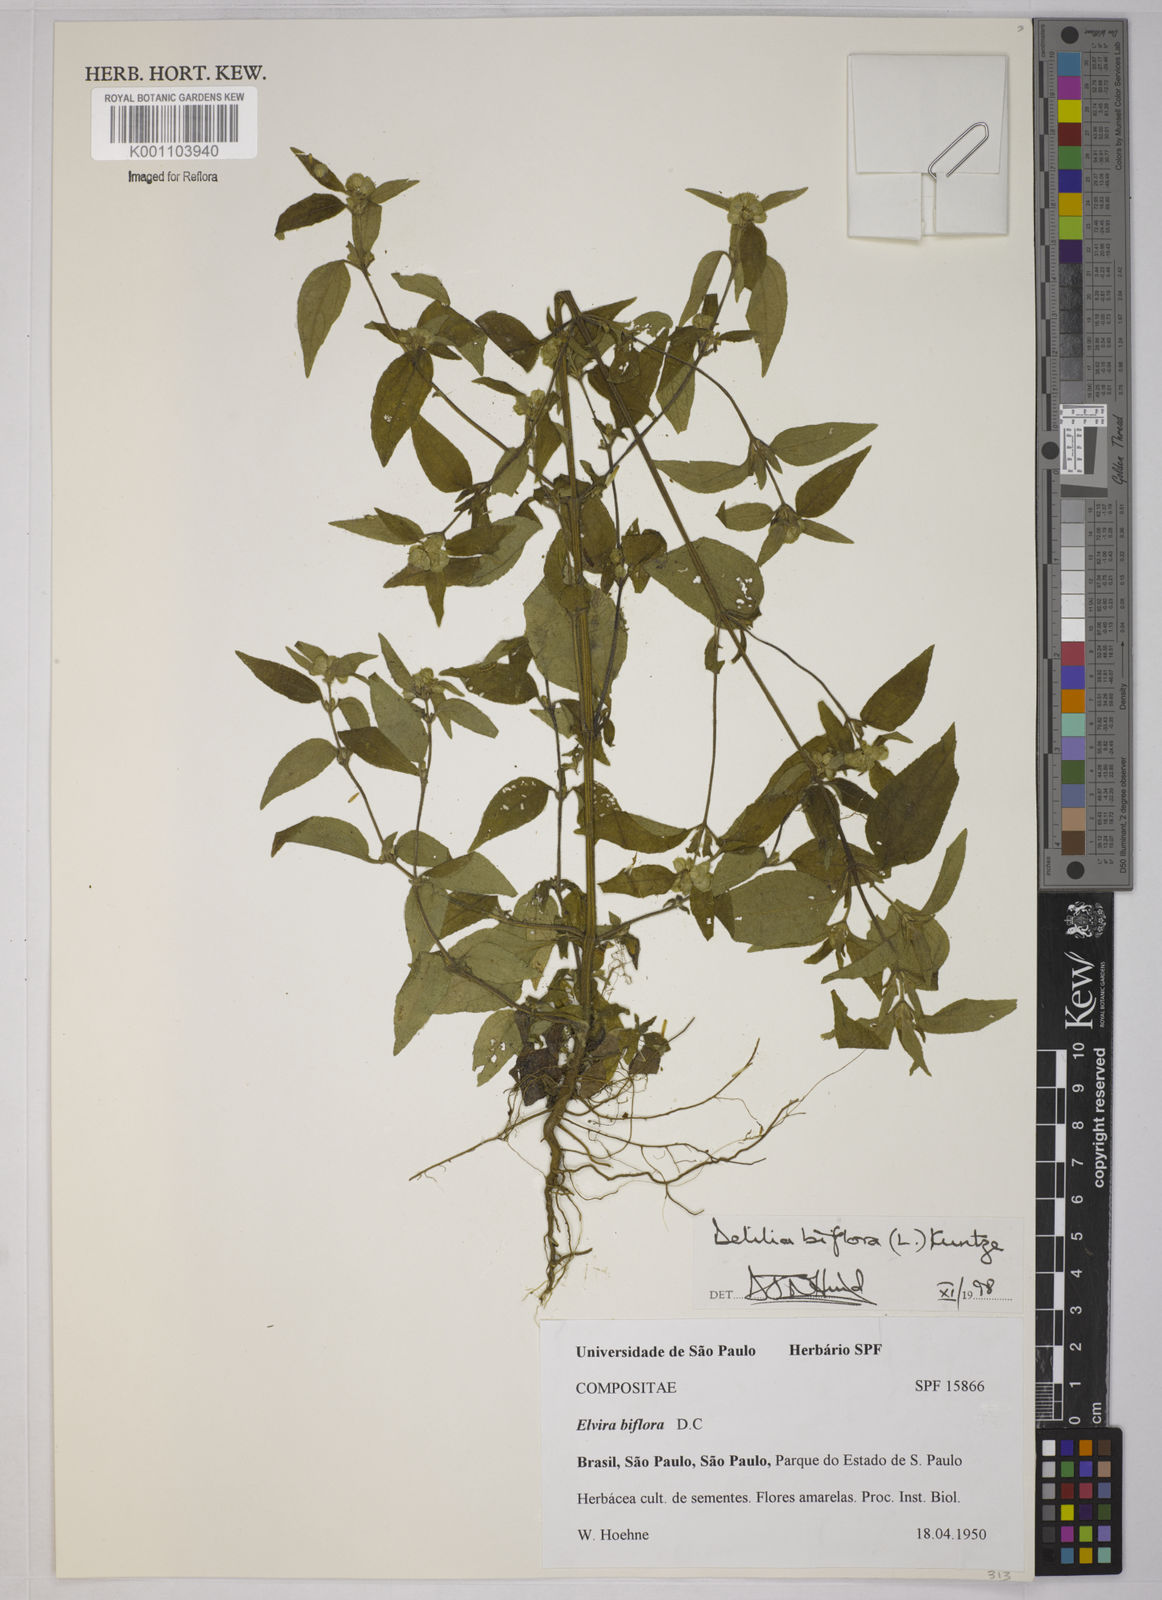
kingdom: Plantae
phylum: Tracheophyta
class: Magnoliopsida
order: Asterales
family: Asteraceae
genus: Delilia
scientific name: Delilia biflora
